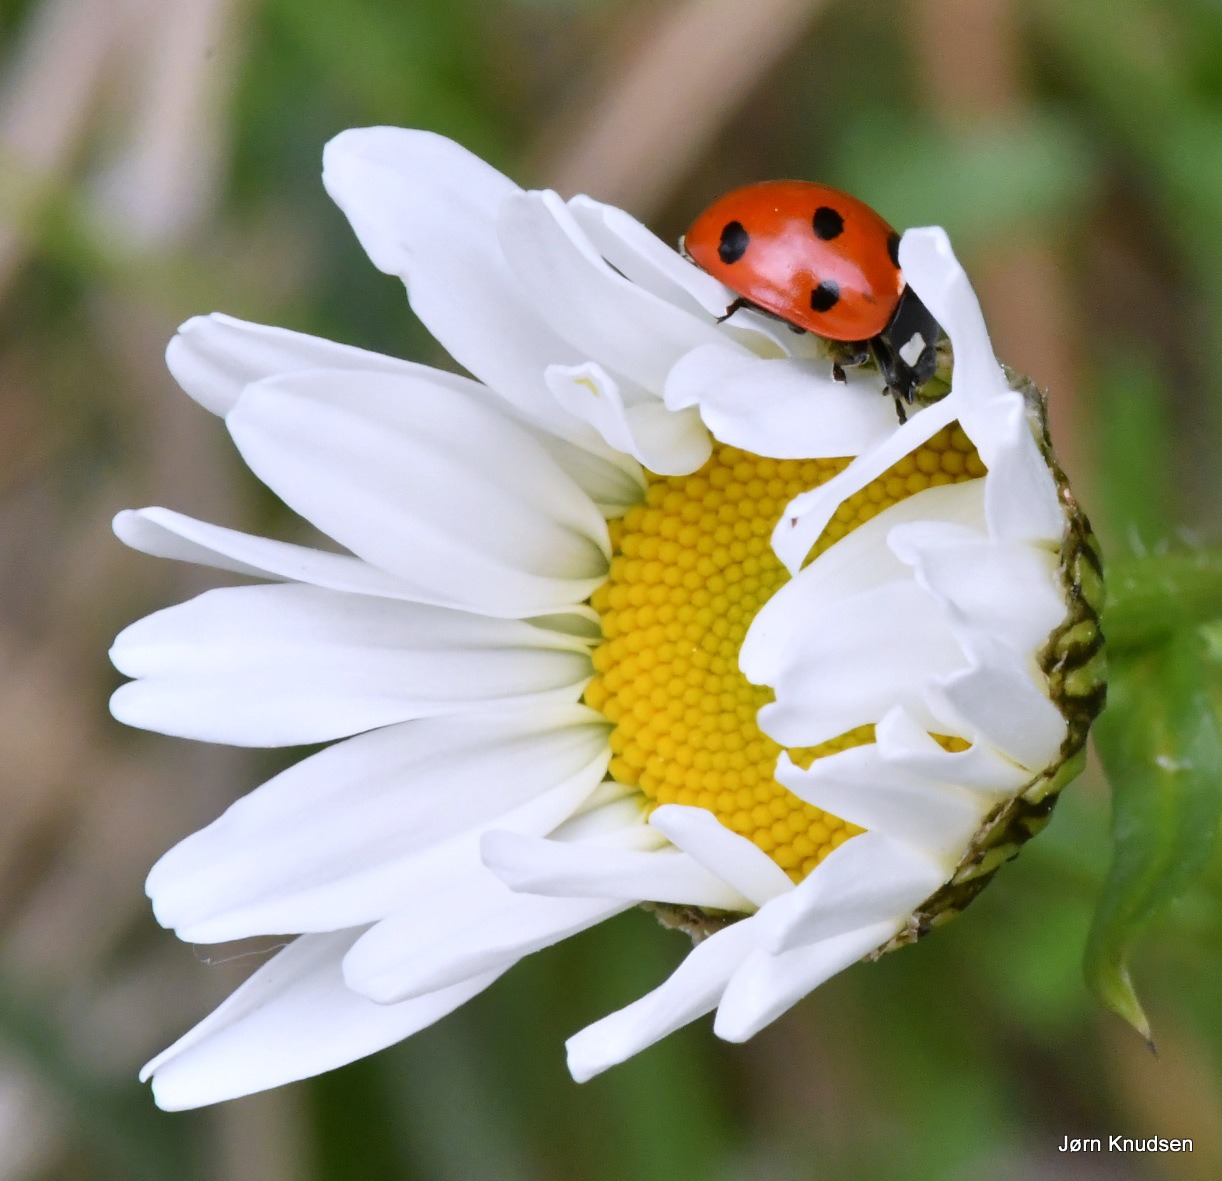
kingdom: Animalia
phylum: Arthropoda
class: Insecta
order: Coleoptera
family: Coccinellidae
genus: Coccinella
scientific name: Coccinella septempunctata
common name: Syvplettet mariehøne
